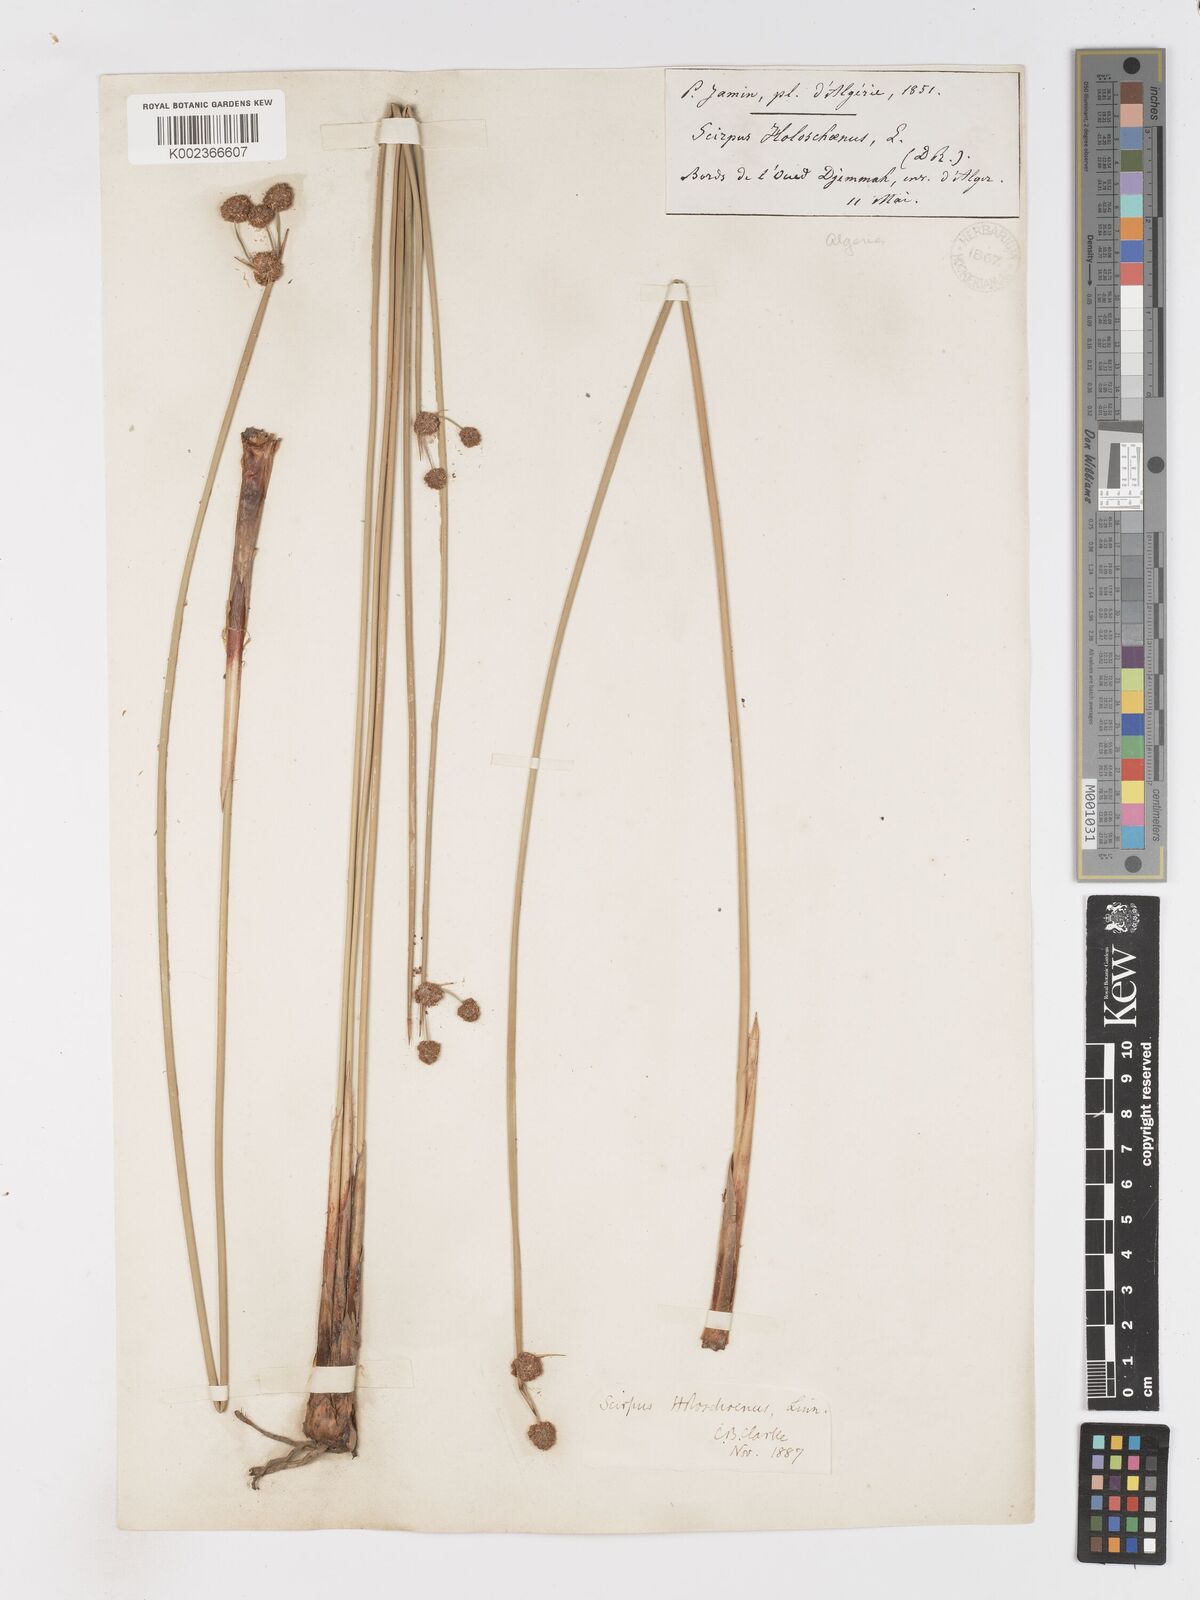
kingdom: Plantae
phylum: Tracheophyta
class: Liliopsida
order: Poales
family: Cyperaceae
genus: Scirpoides
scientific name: Scirpoides holoschoenus
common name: Round-headed club-rush
